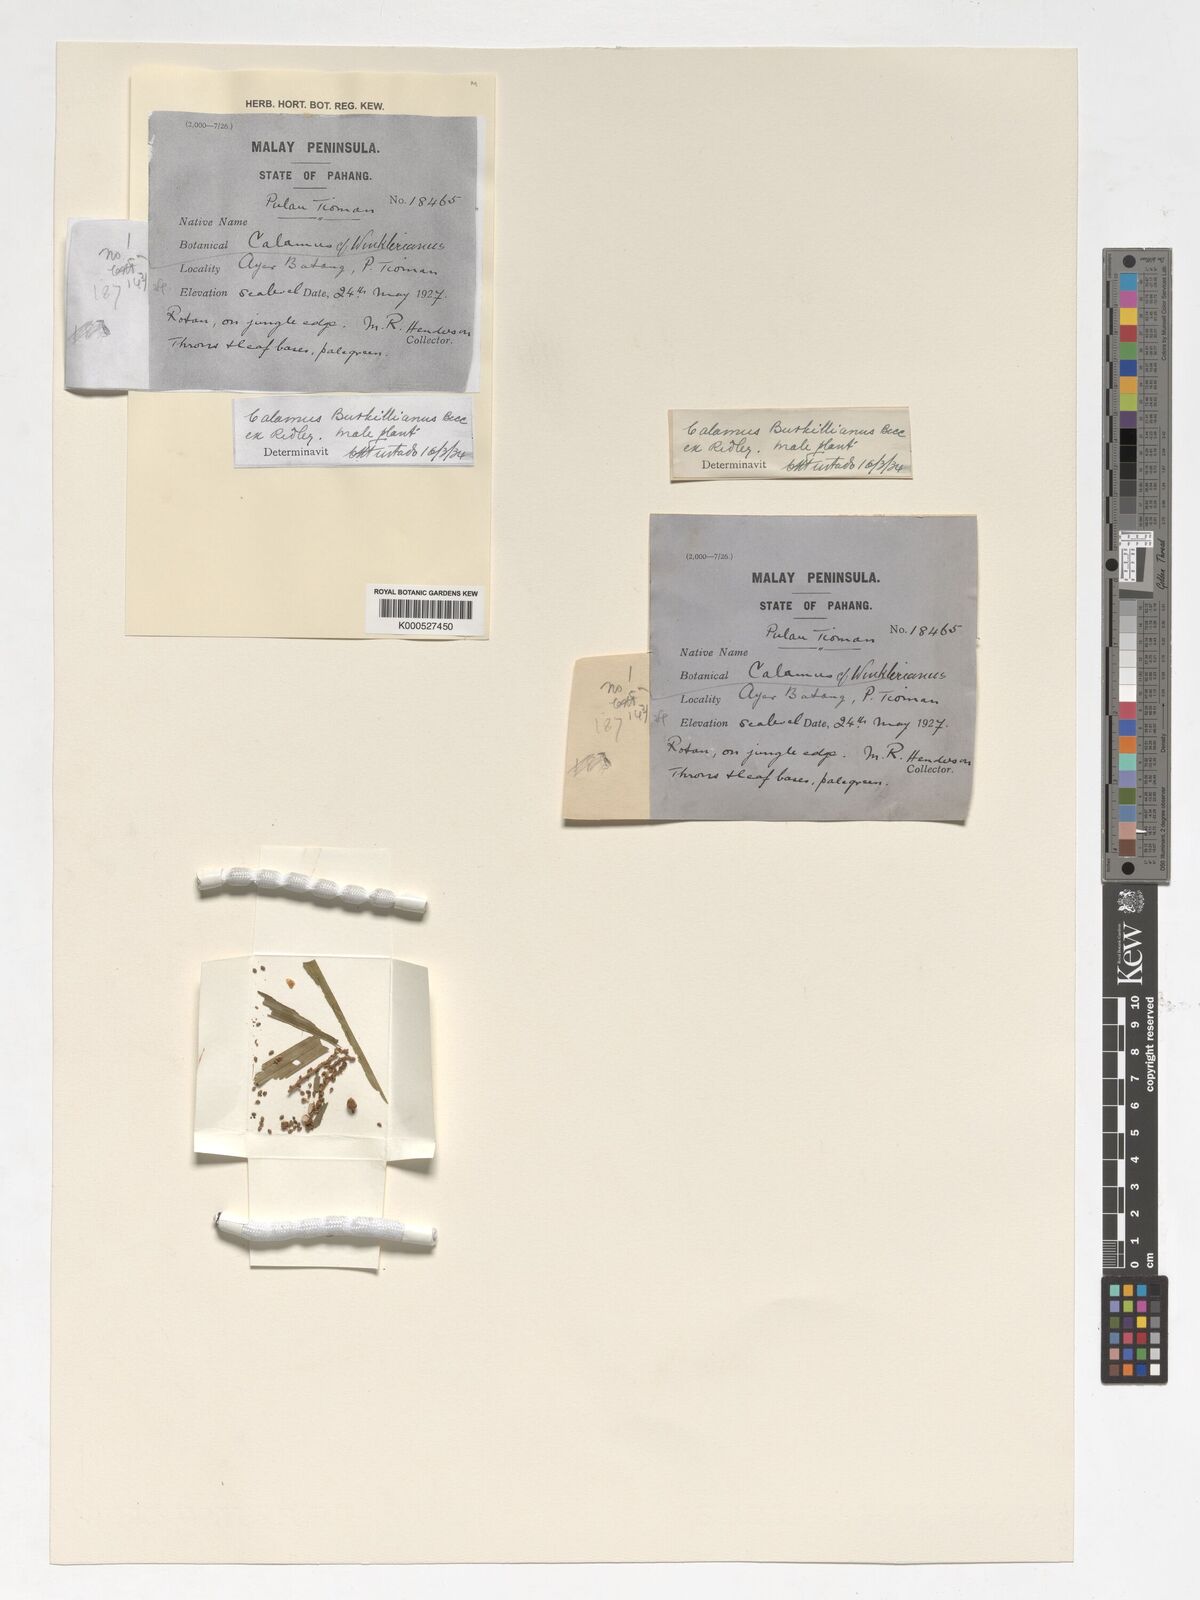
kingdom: Plantae
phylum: Tracheophyta
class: Liliopsida
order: Arecales
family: Arecaceae
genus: Calamus
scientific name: Calamus burkillianus
